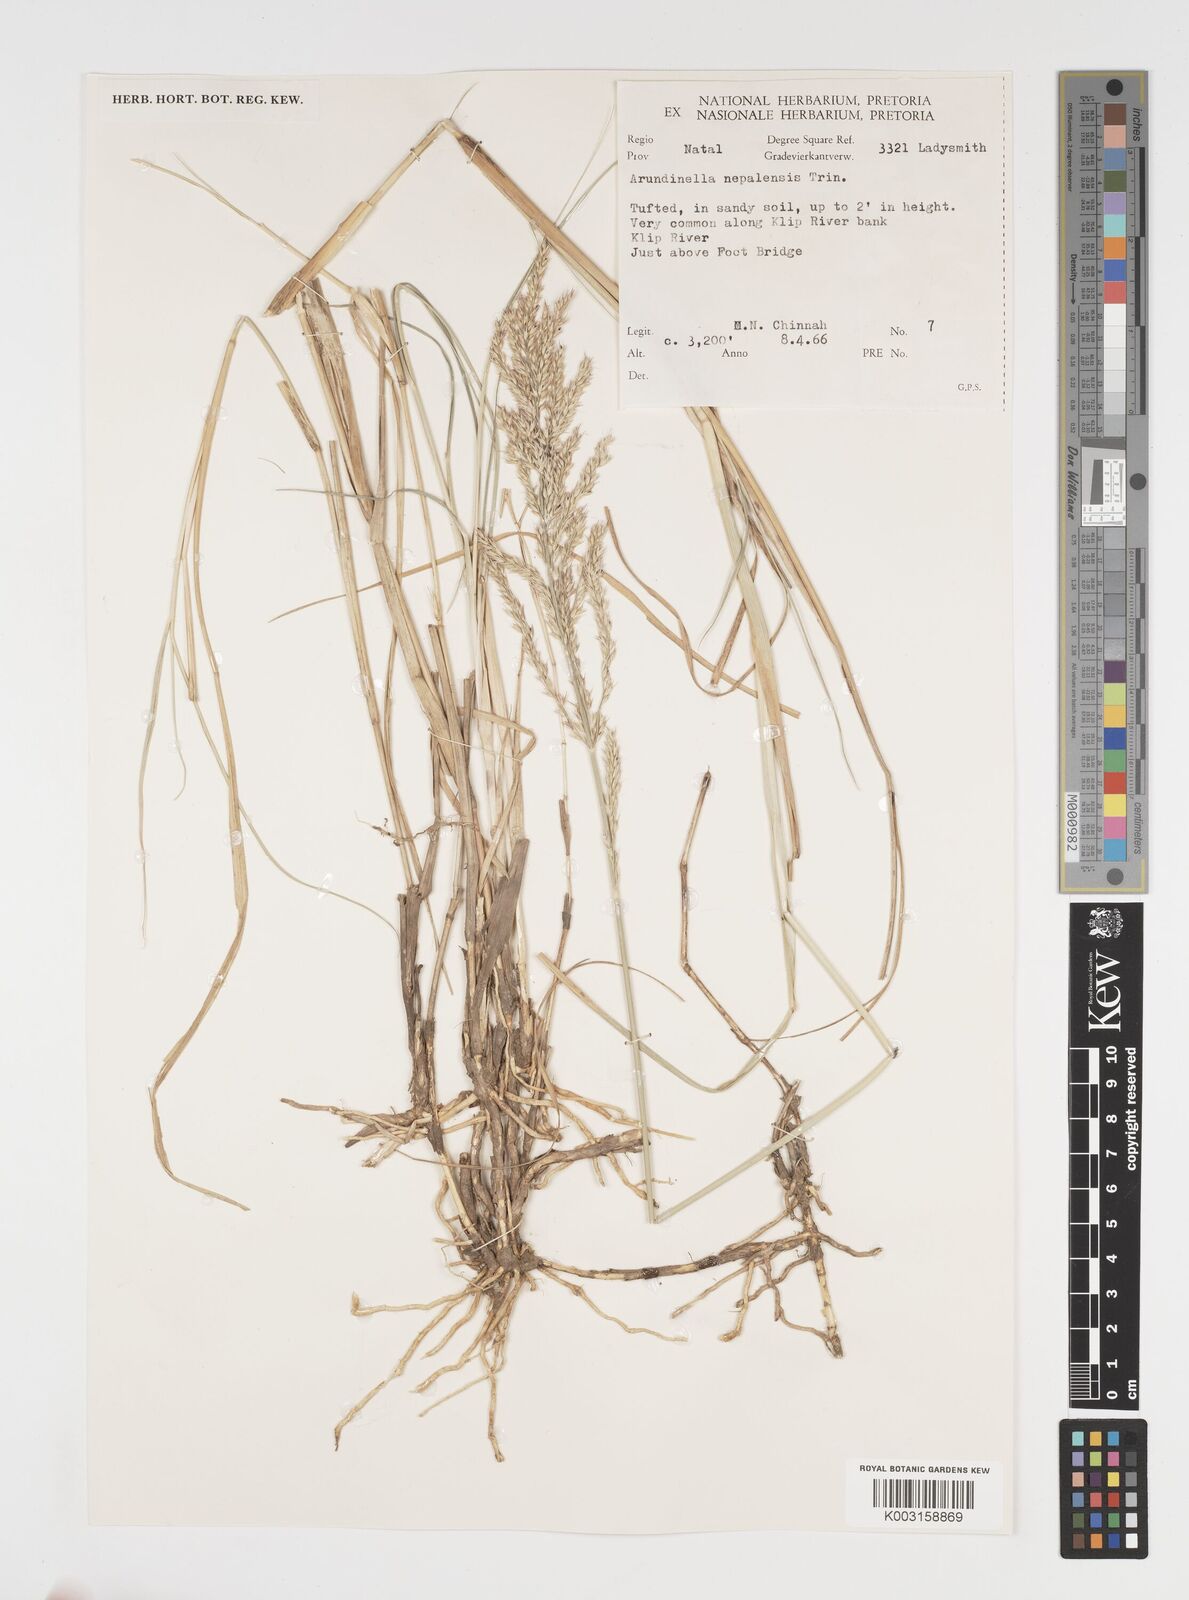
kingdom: Plantae
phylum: Tracheophyta
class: Liliopsida
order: Poales
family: Poaceae
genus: Arundinella
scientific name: Arundinella nepalensis
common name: Reed grass
